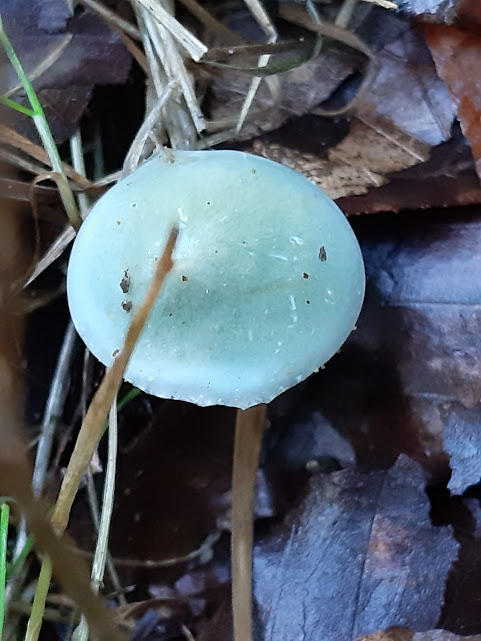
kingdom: Fungi
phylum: Basidiomycota
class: Agaricomycetes
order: Agaricales
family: Strophariaceae
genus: Stropharia
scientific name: Stropharia
